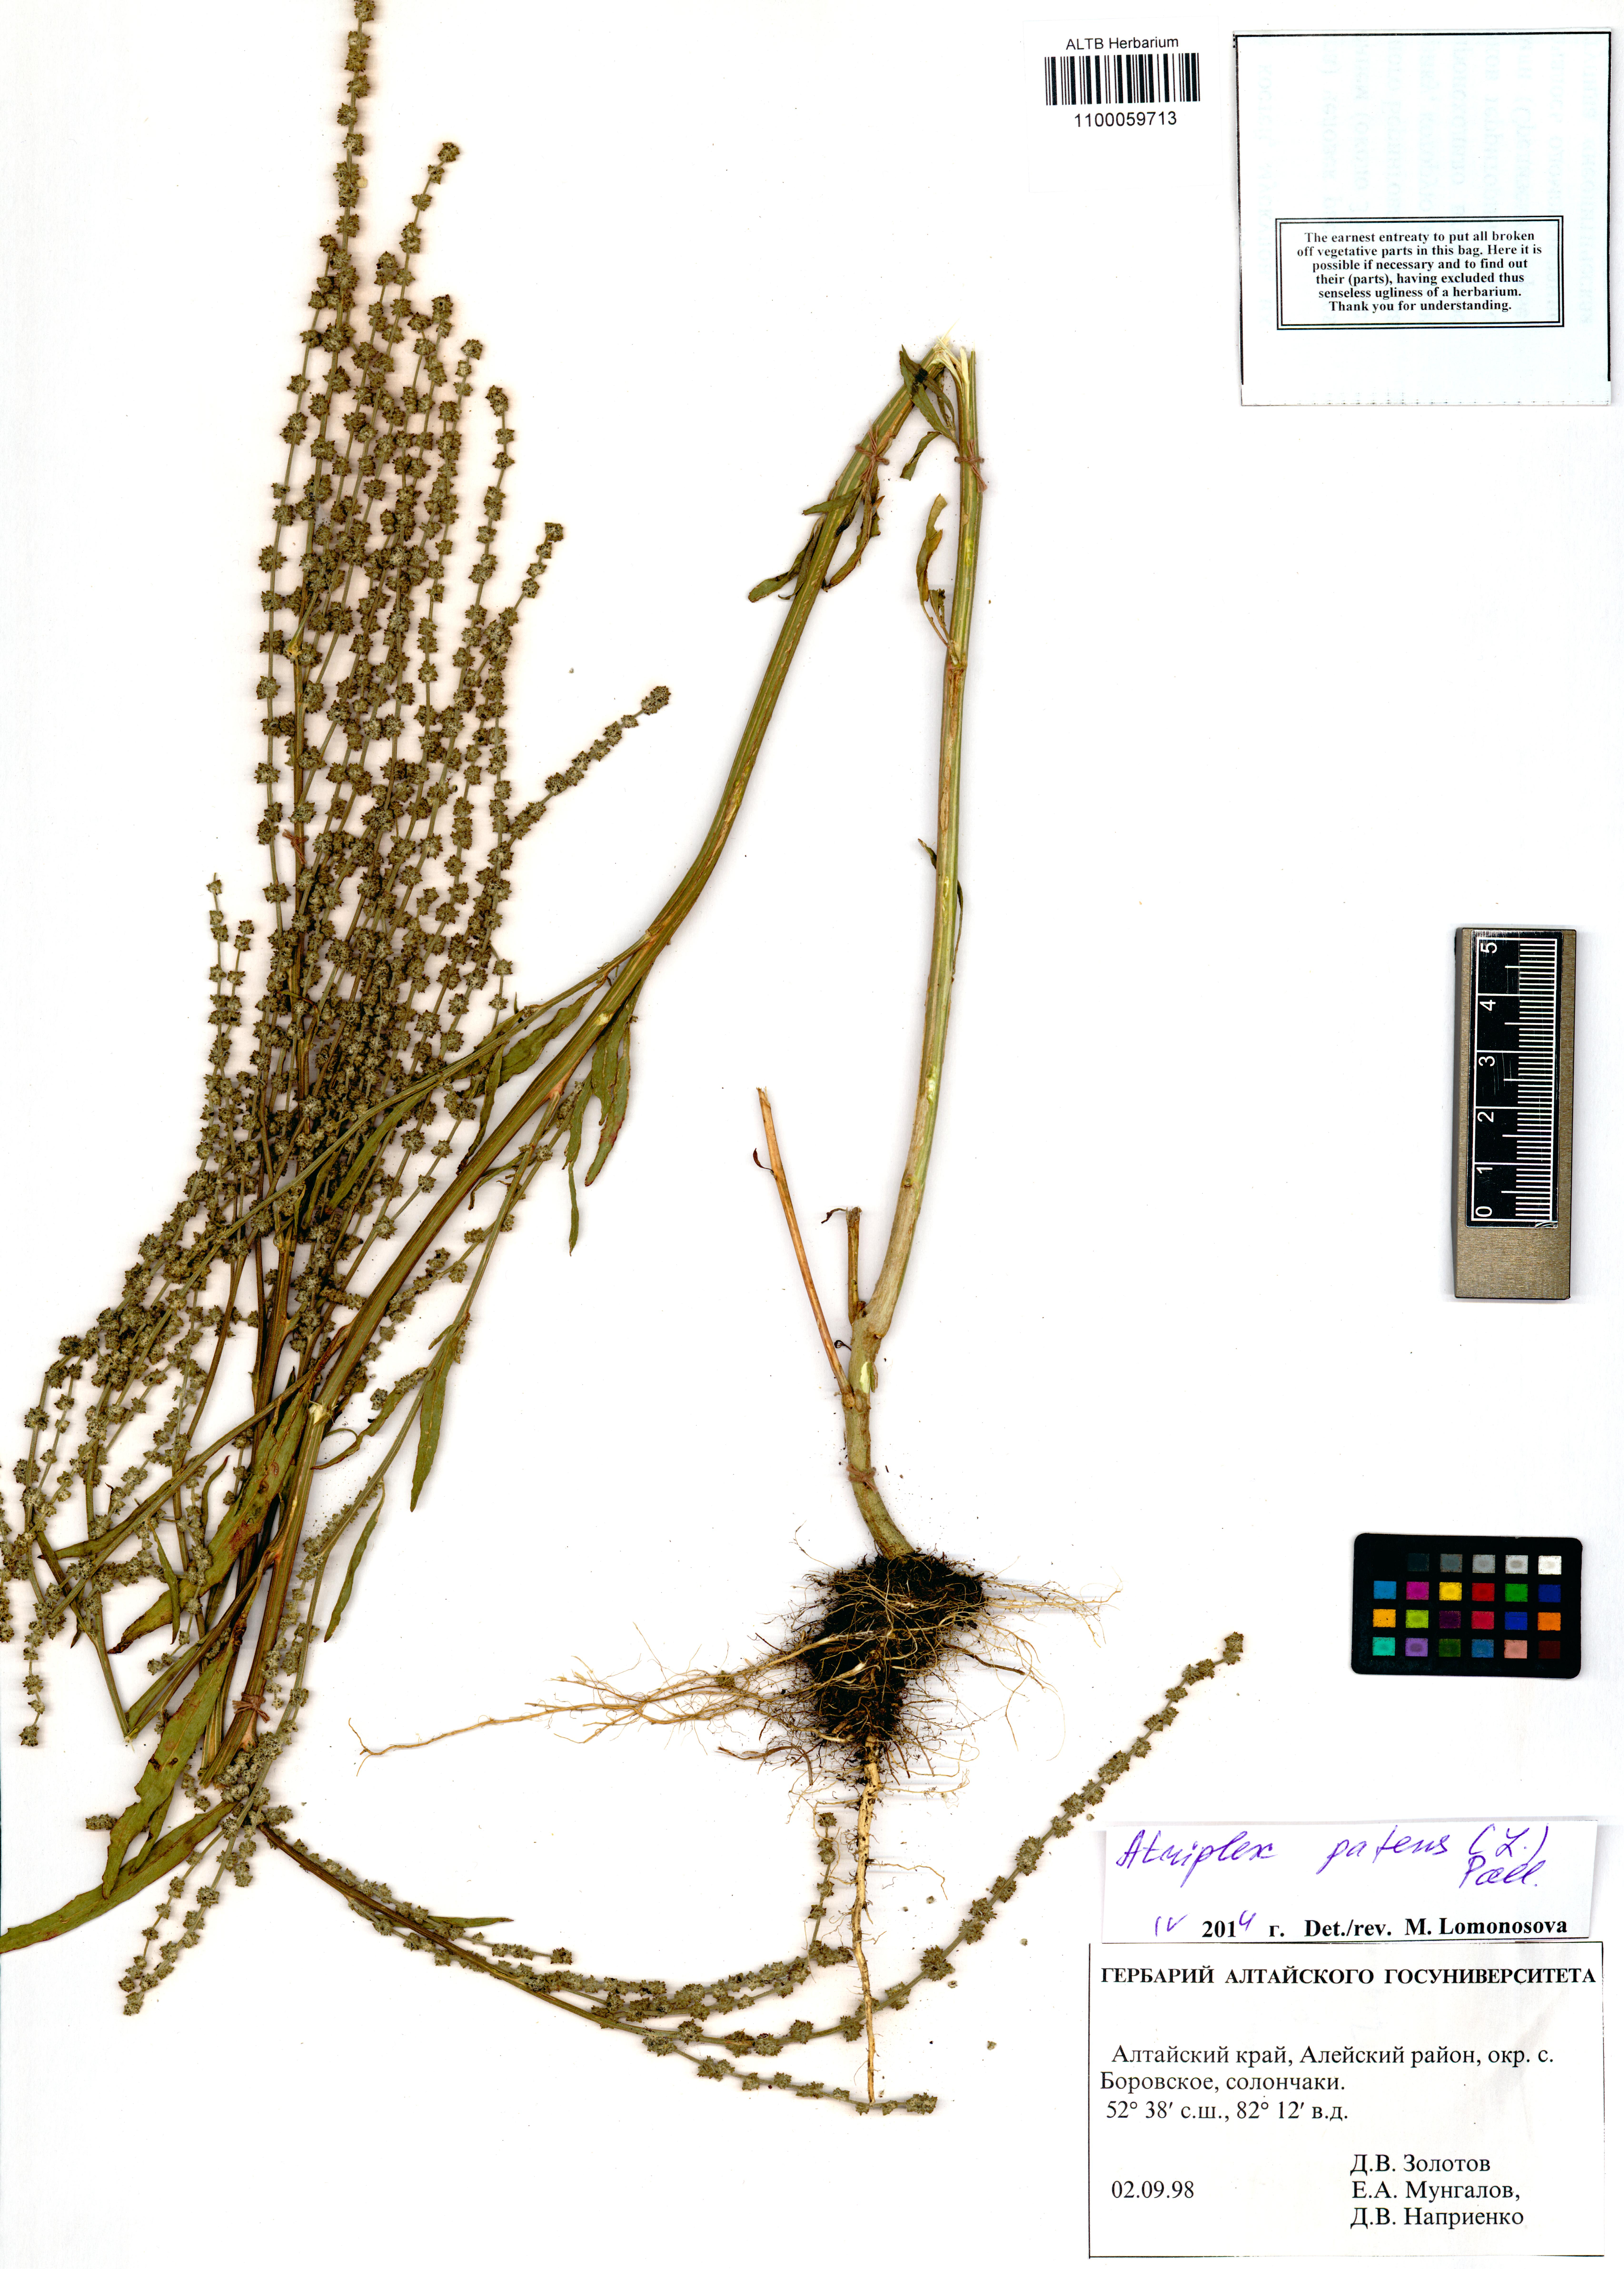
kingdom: Plantae
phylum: Tracheophyta
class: Magnoliopsida
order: Caryophyllales
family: Amaranthaceae
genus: Atriplex
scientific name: Atriplex patens
